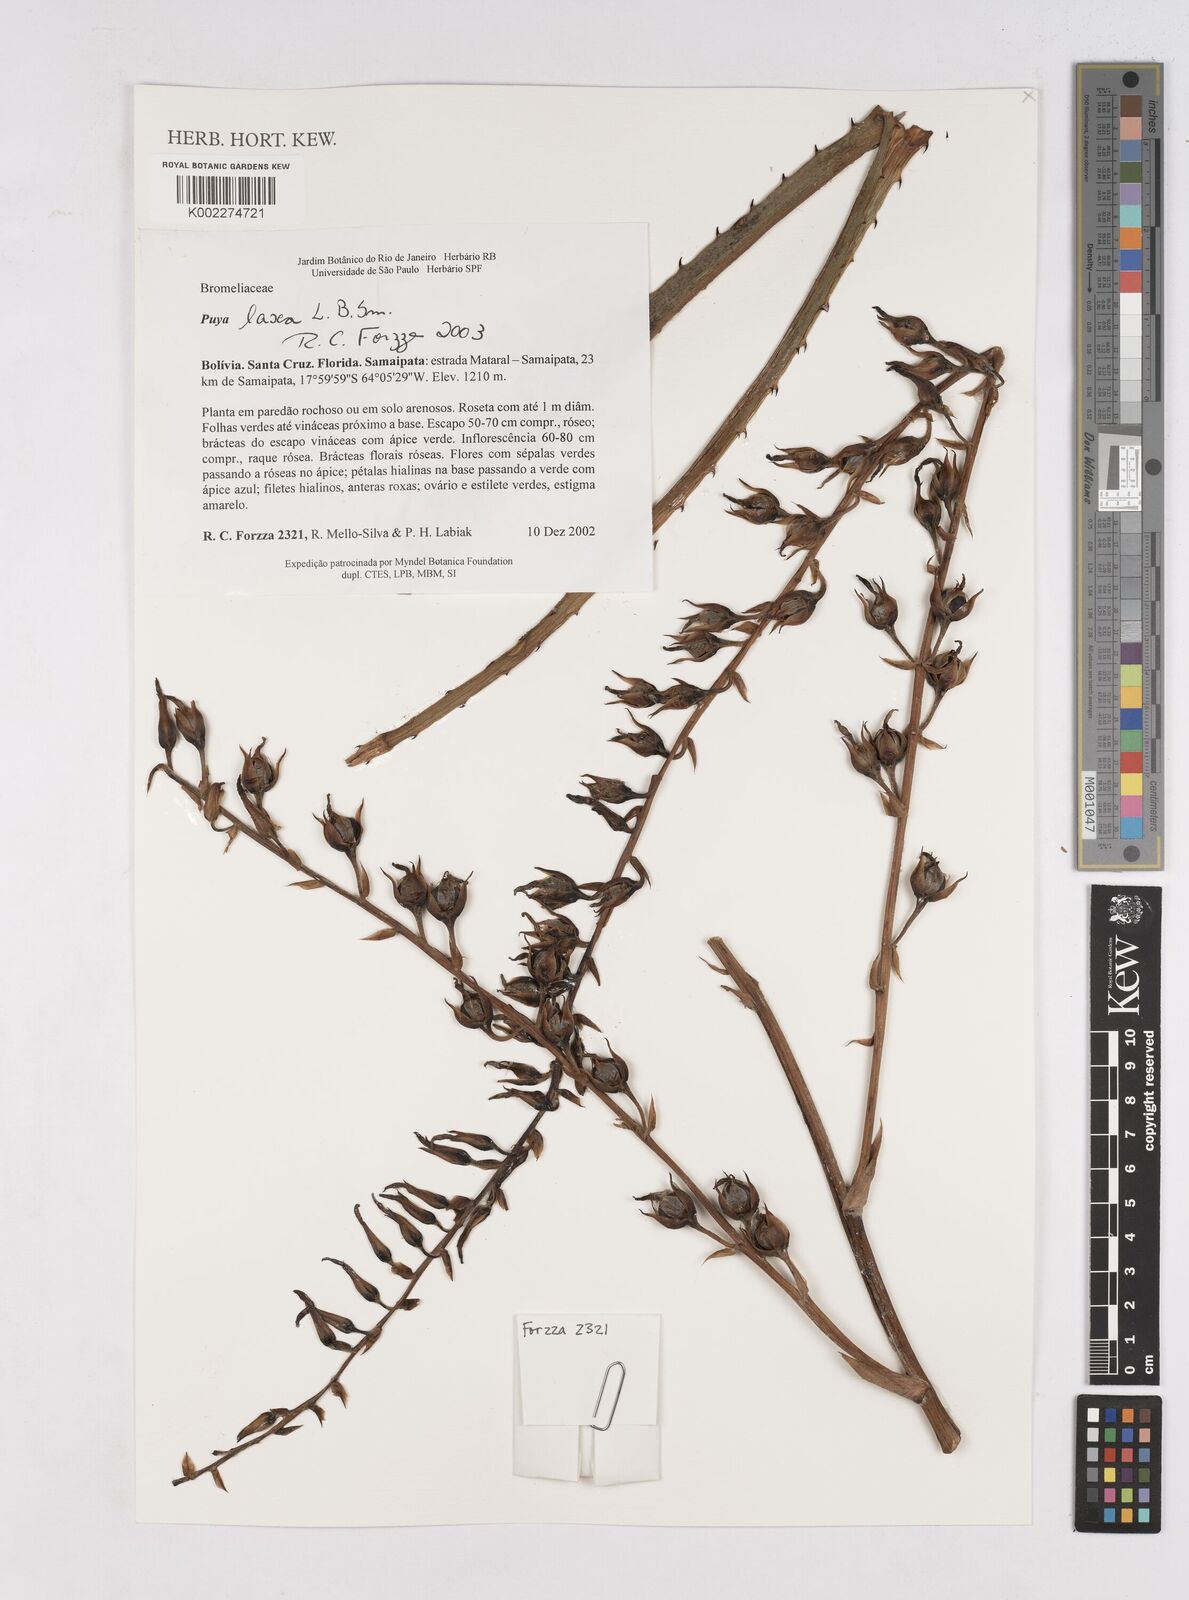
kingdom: Plantae
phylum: Tracheophyta
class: Liliopsida
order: Poales
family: Bromeliaceae
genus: Puya
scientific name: Puya laxa
